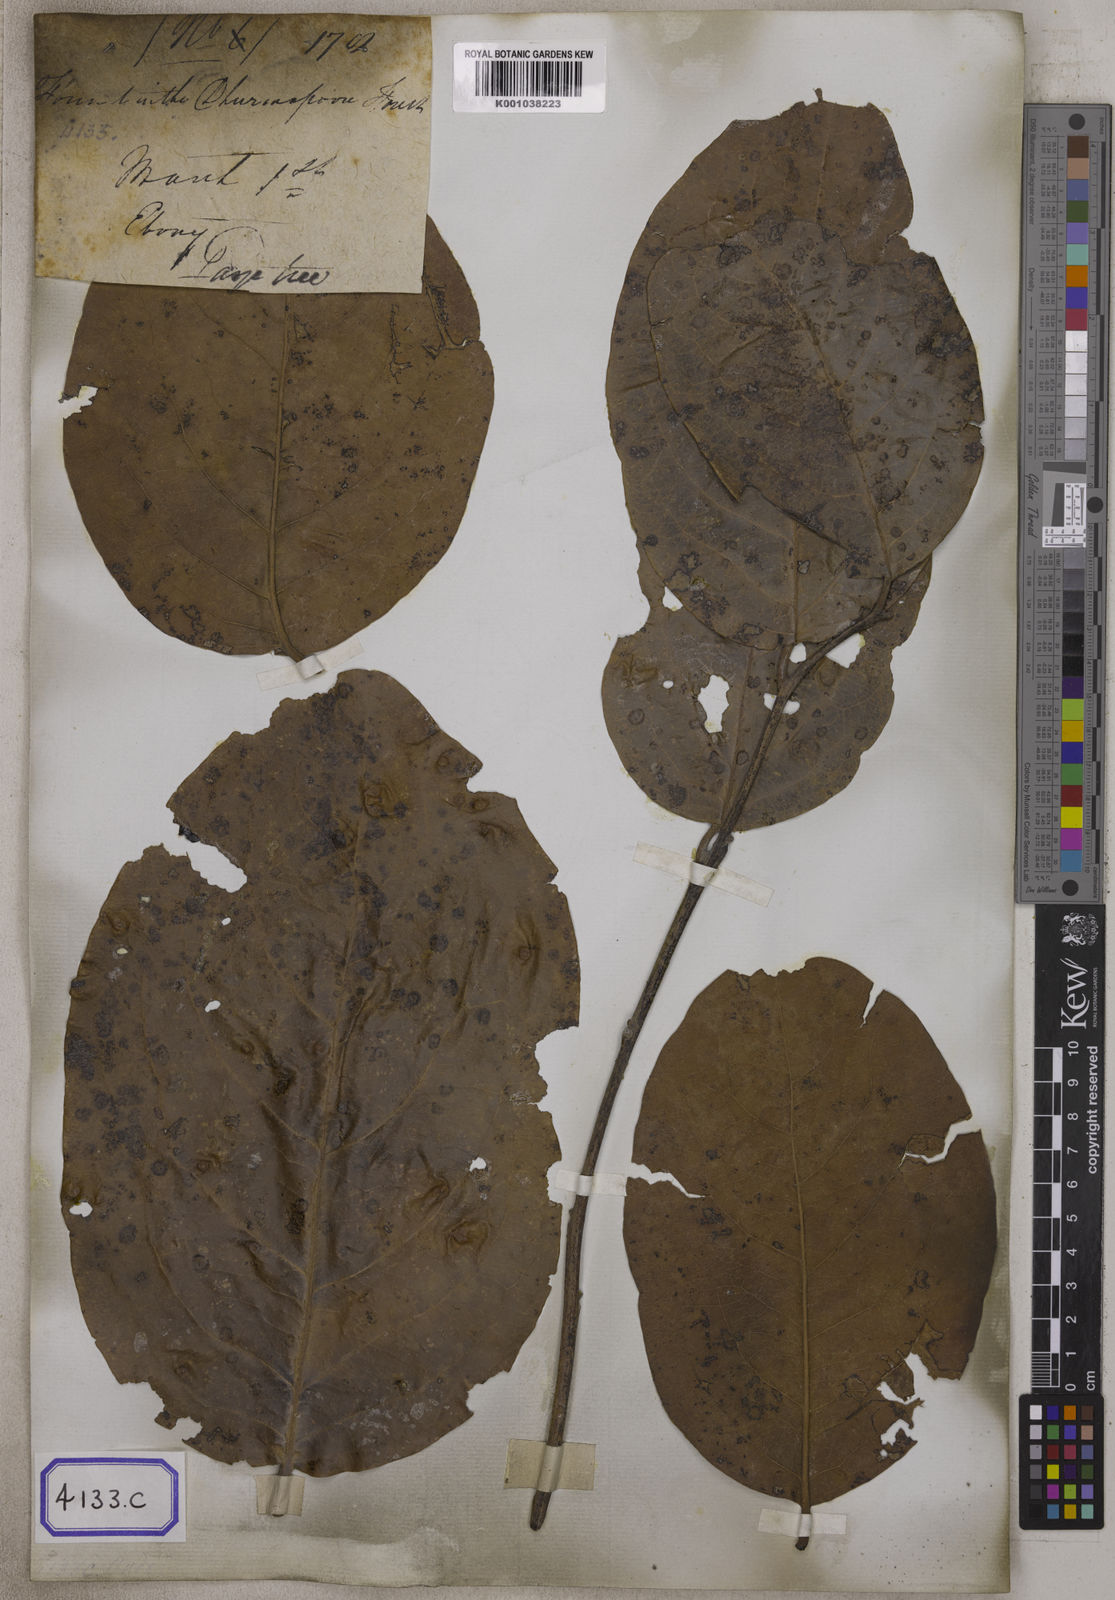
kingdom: Plantae
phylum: Tracheophyta
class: Magnoliopsida
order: Ericales
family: Ebenaceae
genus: Diospyros
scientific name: Diospyros exculpta
